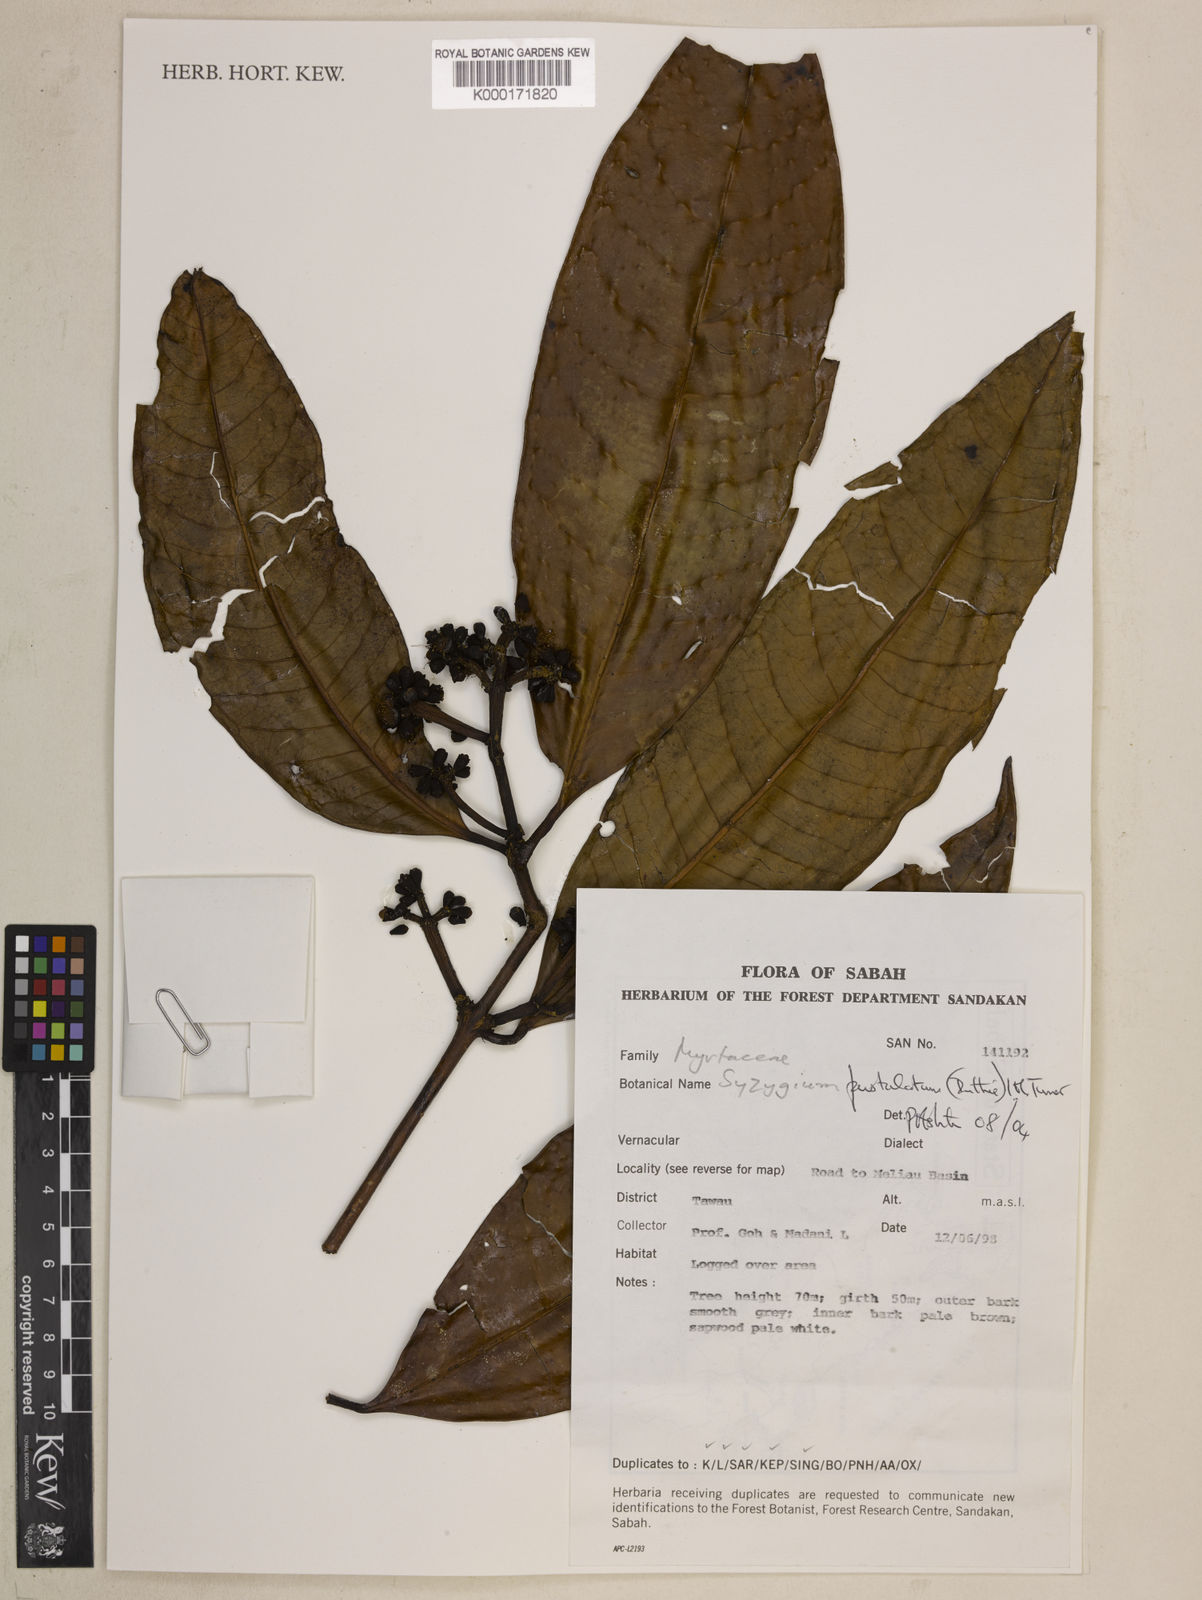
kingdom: Plantae
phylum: Tracheophyta
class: Magnoliopsida
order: Myrtales
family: Myrtaceae
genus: Syzygium
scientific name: Syzygium
